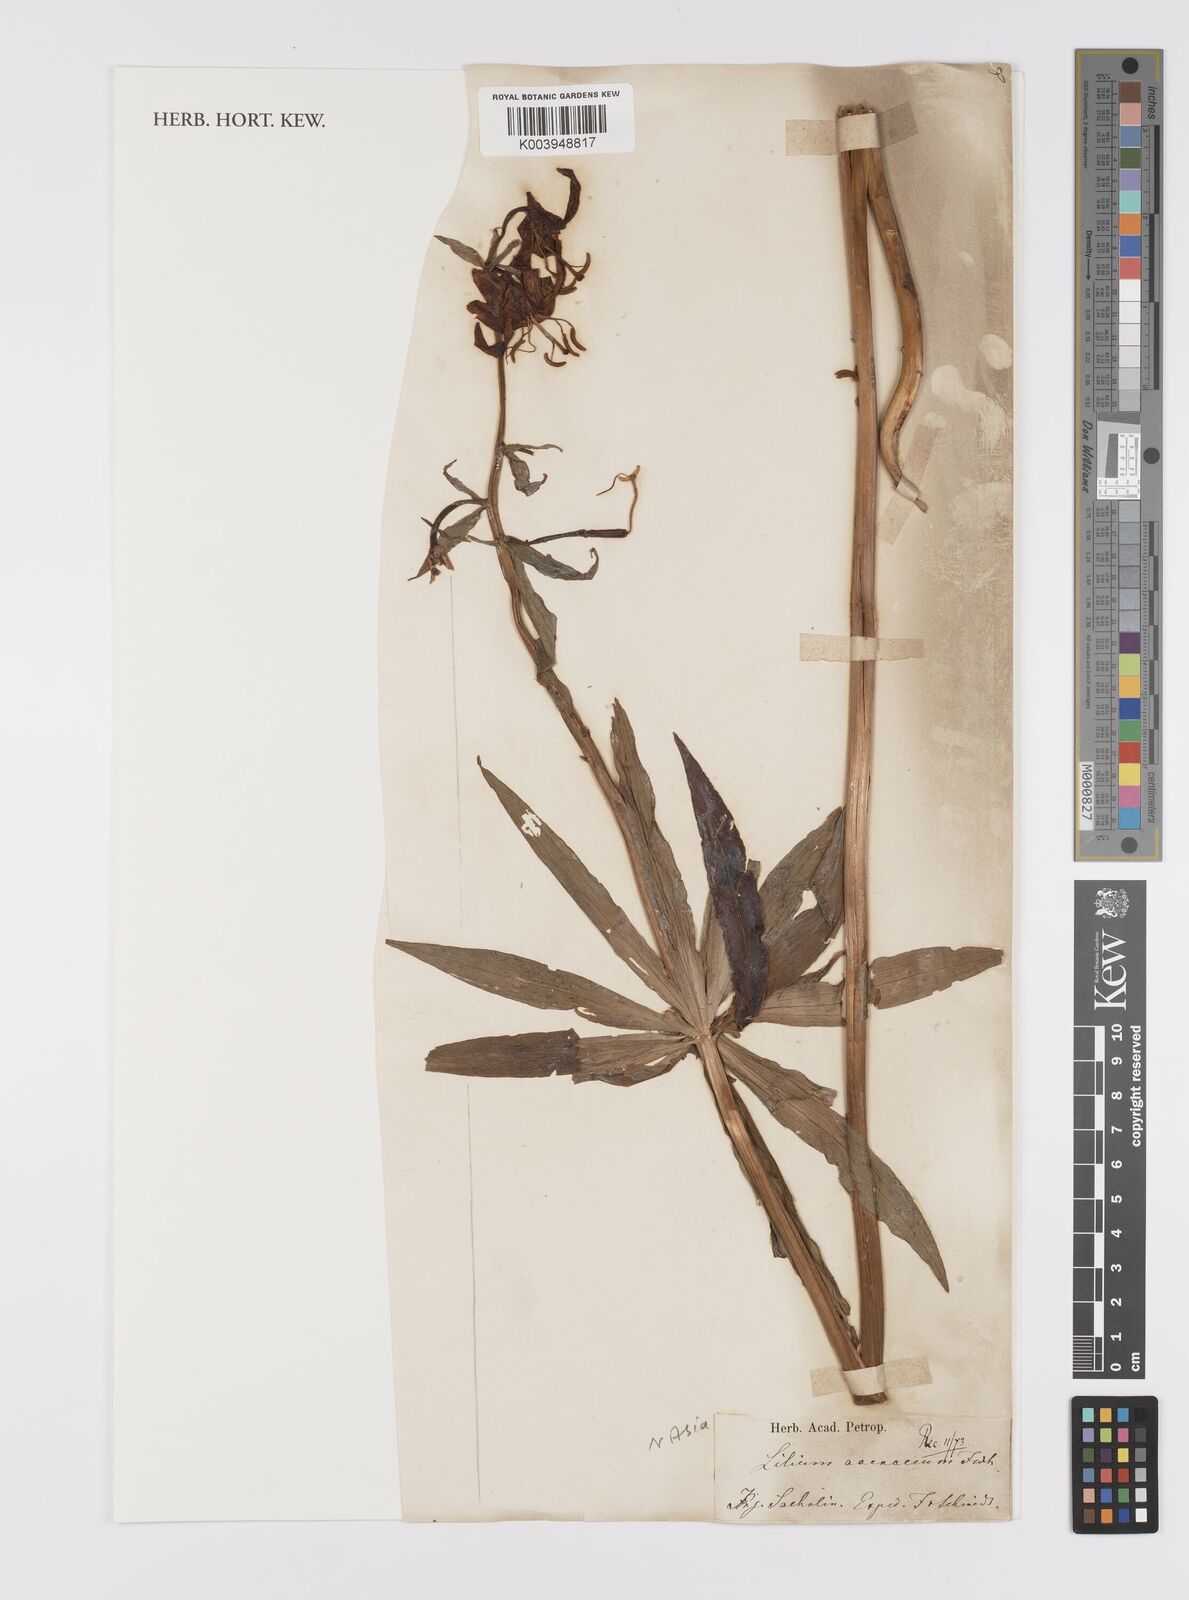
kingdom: Plantae
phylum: Tracheophyta
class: Liliopsida
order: Liliales
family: Liliaceae
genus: Lilium
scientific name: Lilium medeoloides
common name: Wheel lily
